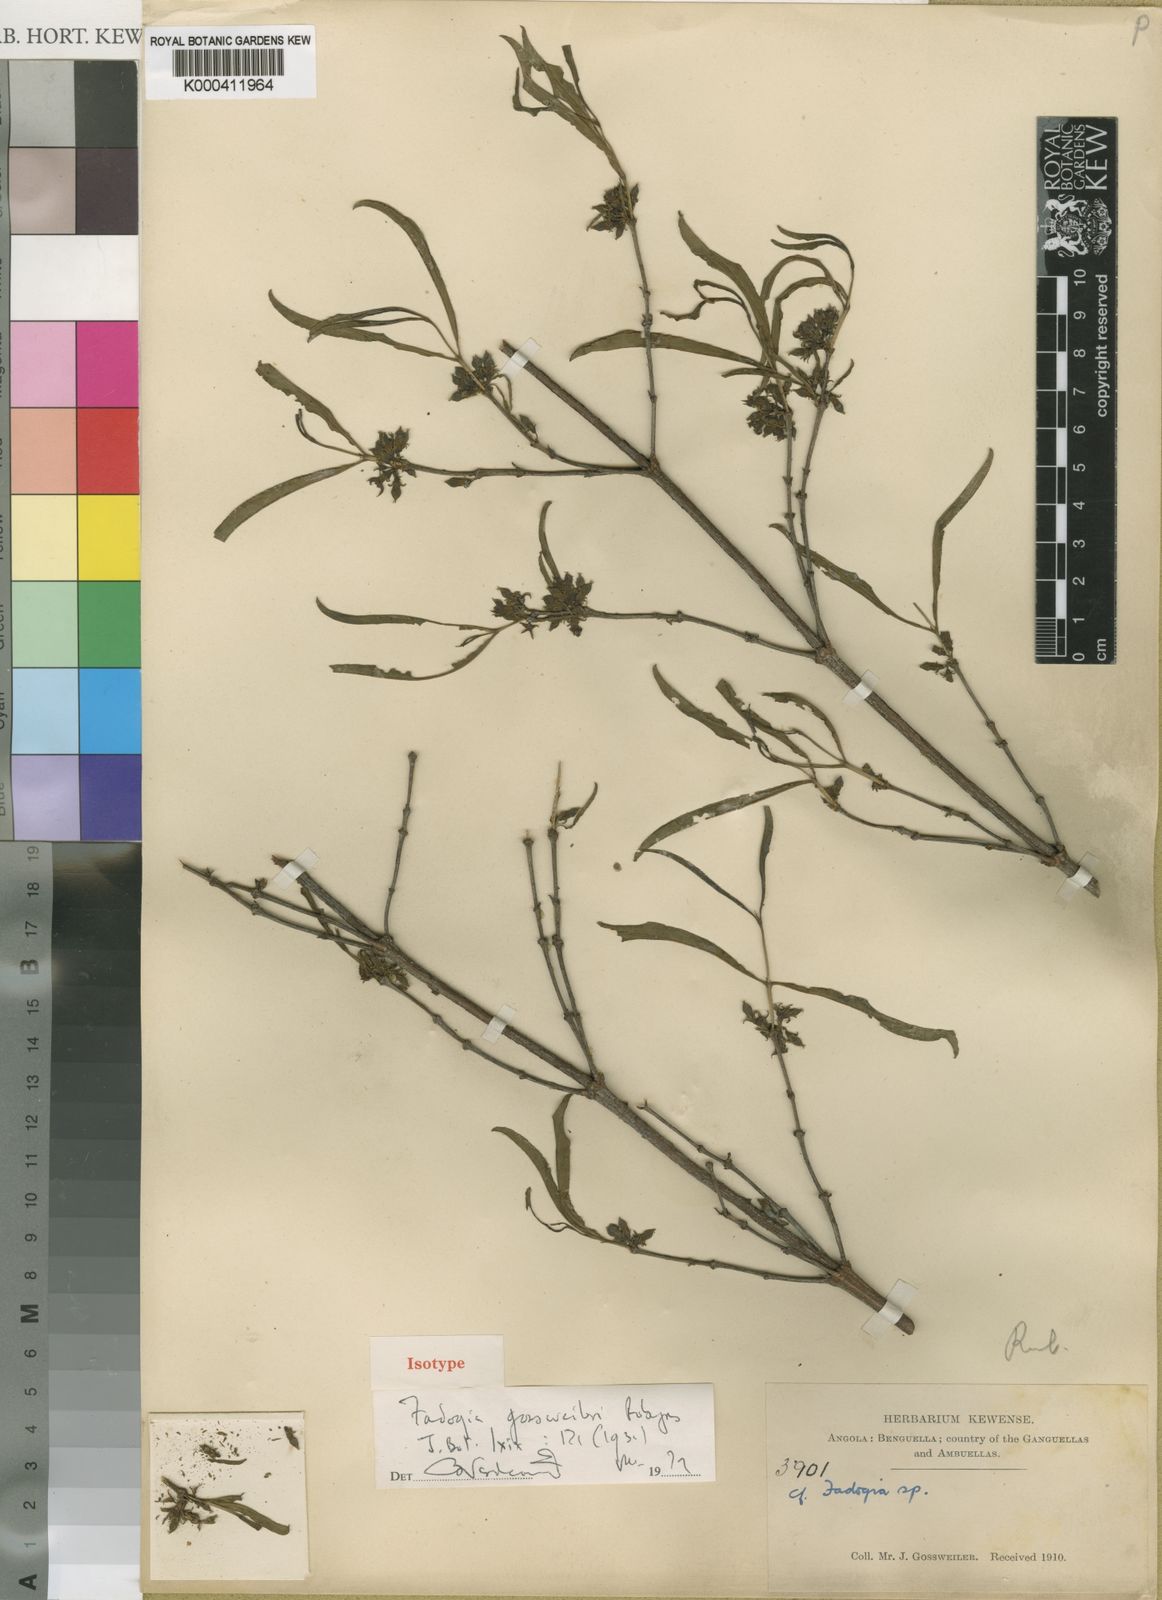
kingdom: Plantae
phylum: Tracheophyta
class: Magnoliopsida
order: Gentianales
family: Rubiaceae
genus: Fadogia
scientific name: Fadogia gossweileri
